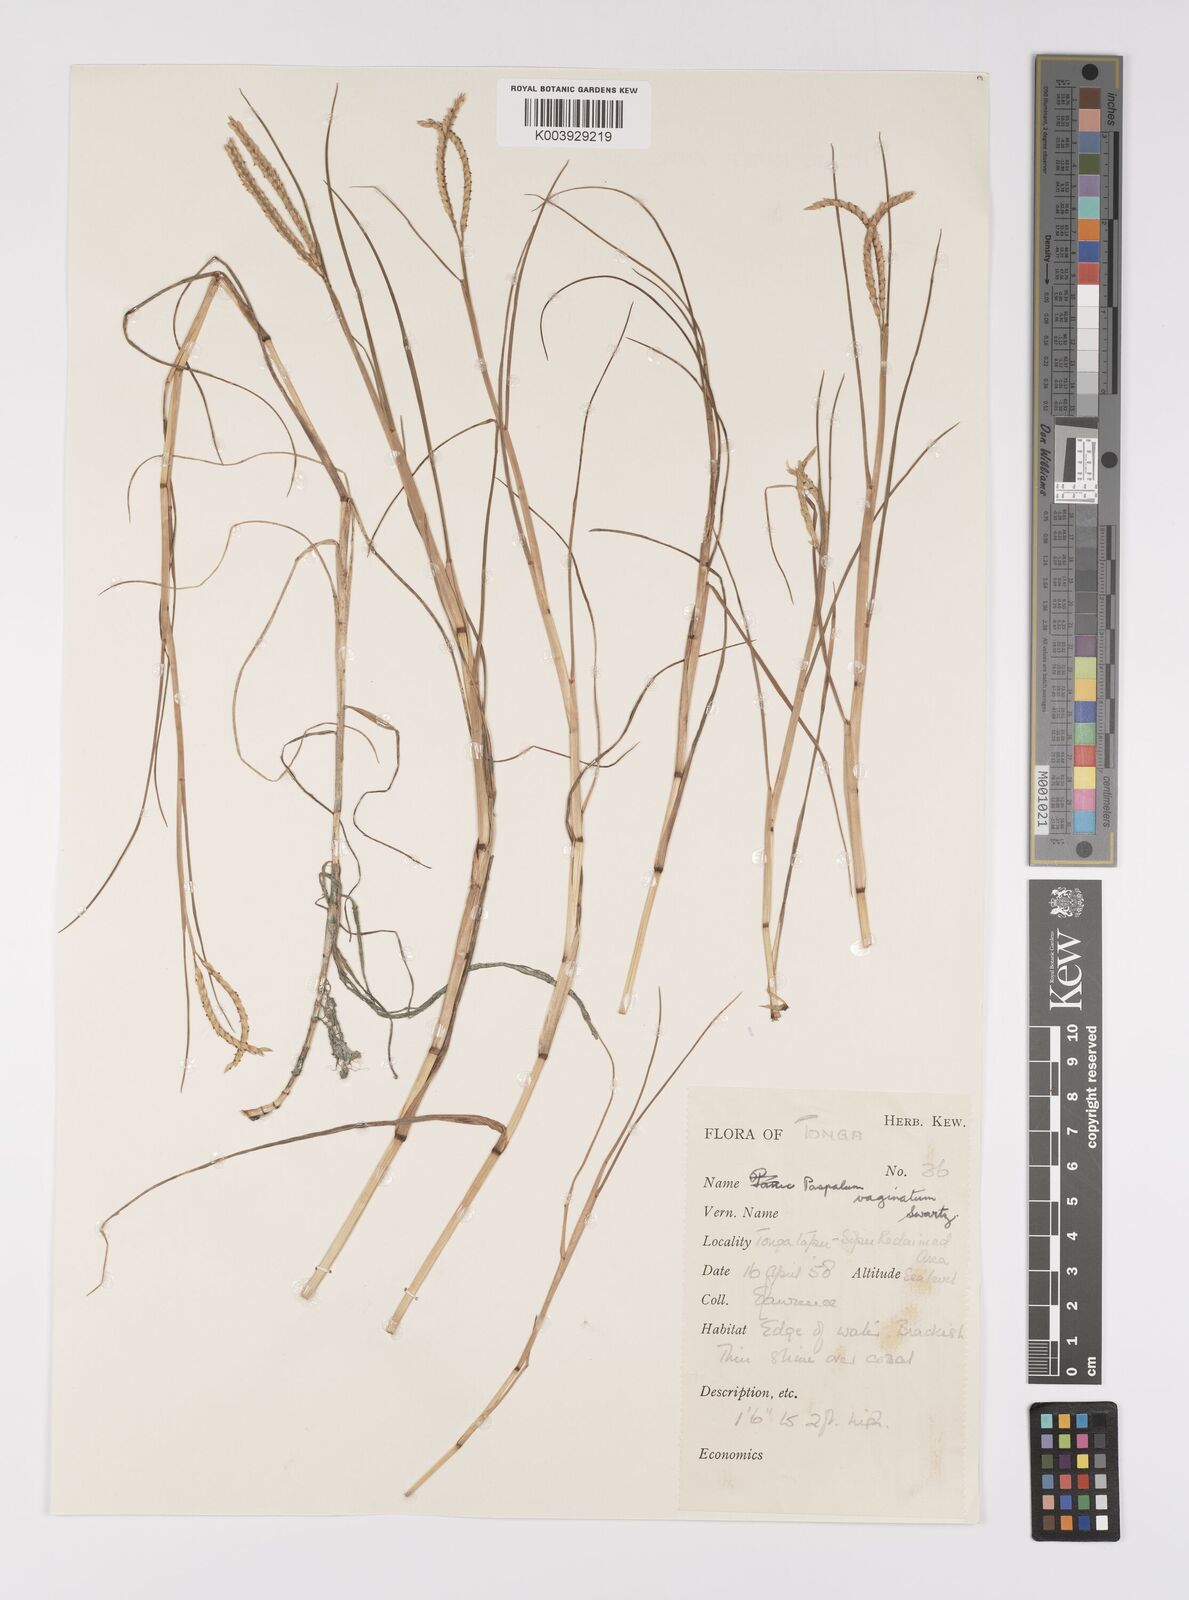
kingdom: Plantae
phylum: Tracheophyta
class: Liliopsida
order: Poales
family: Poaceae
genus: Paspalum
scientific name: Paspalum vaginatum
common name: Seashore paspalum
